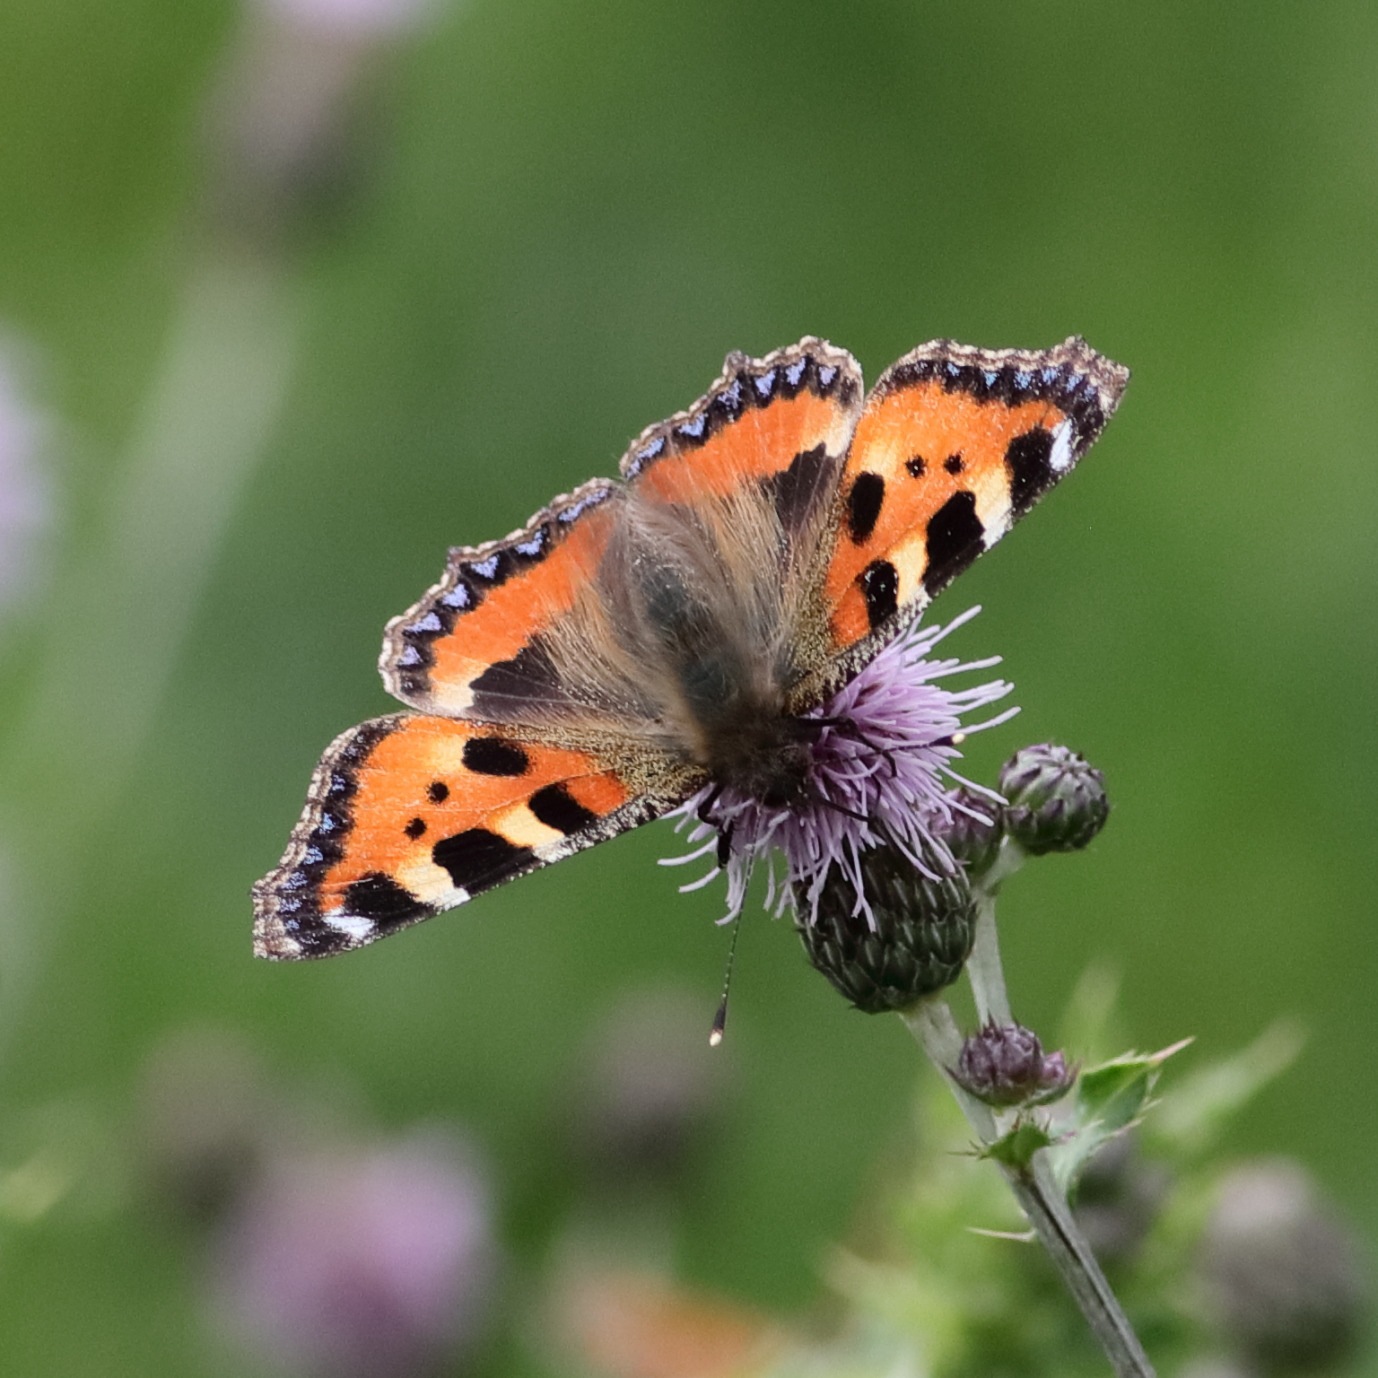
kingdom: Animalia
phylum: Arthropoda
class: Insecta
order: Lepidoptera
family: Nymphalidae
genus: Aglais
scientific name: Aglais urticae
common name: Nældens takvinge
